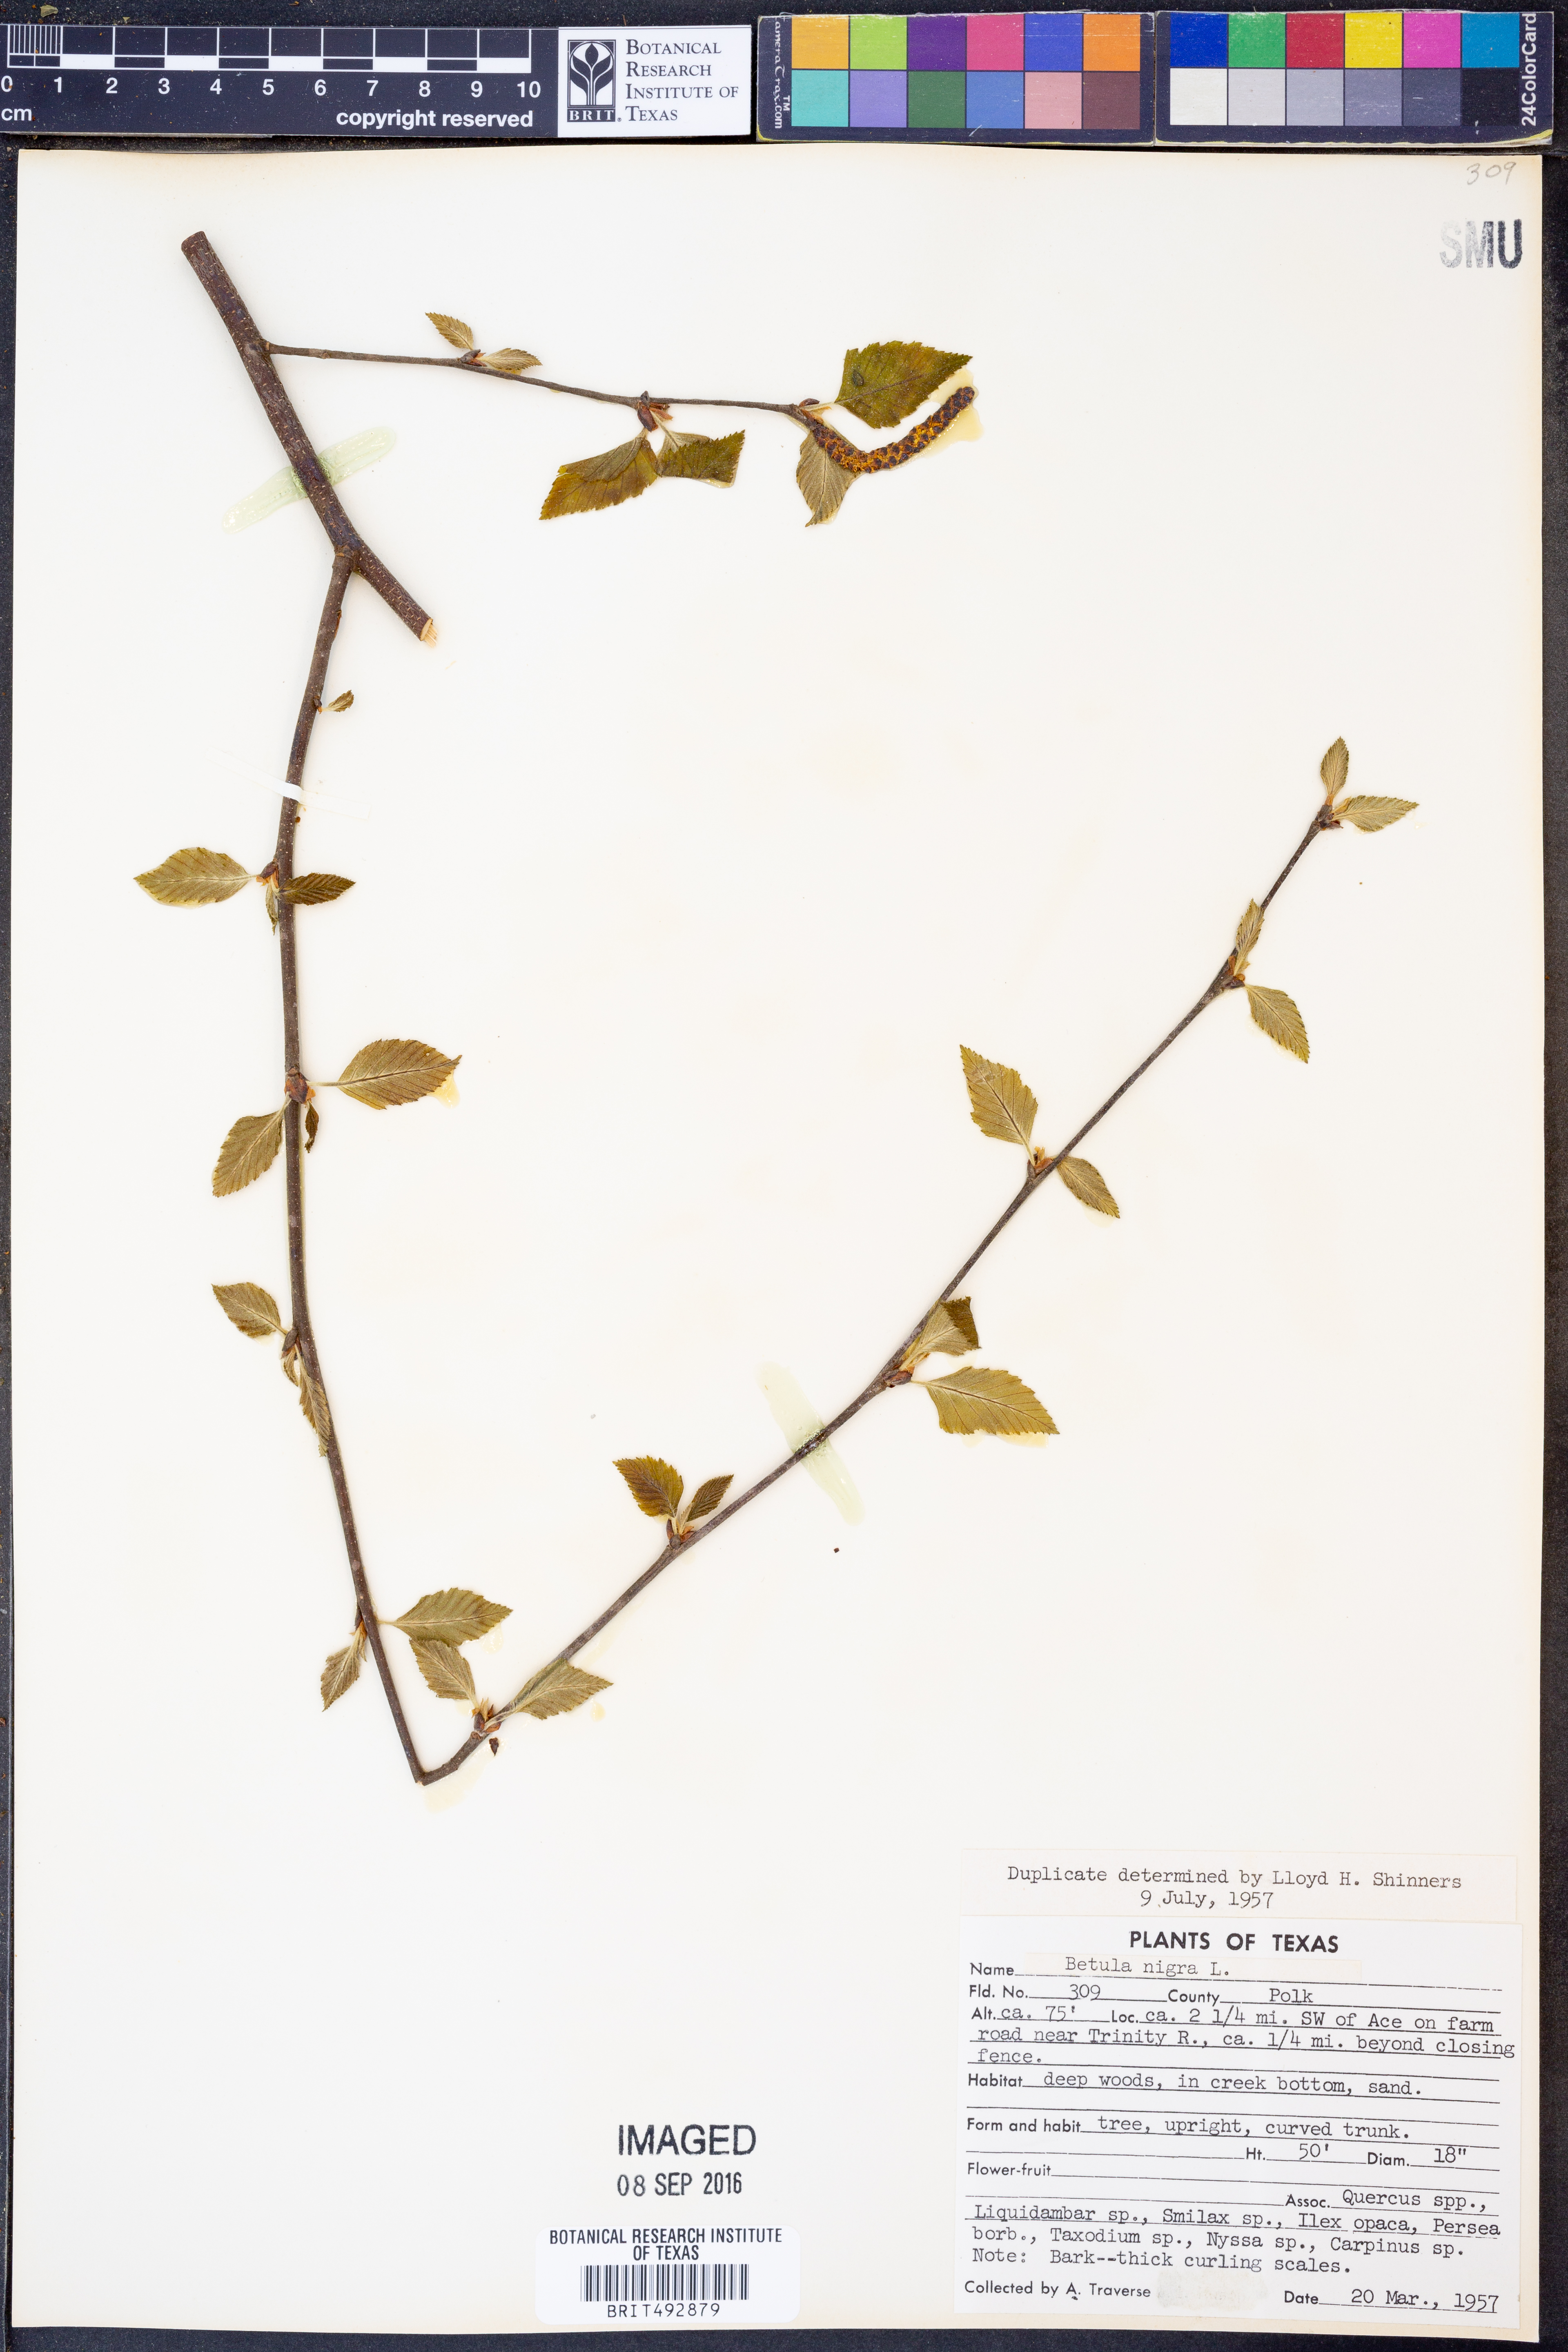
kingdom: Plantae
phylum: Tracheophyta
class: Magnoliopsida
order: Fagales
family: Betulaceae
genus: Betula
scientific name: Betula nigra
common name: Black birch
